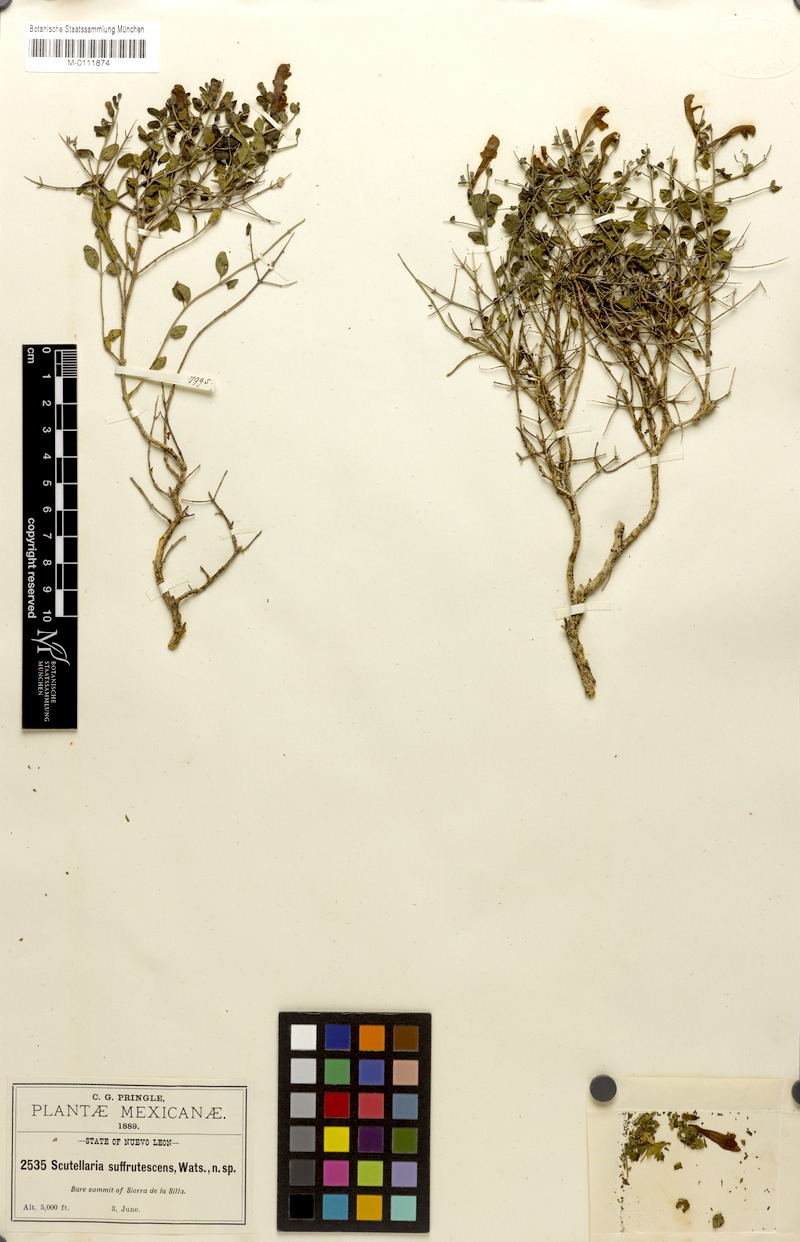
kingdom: Plantae
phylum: Tracheophyta
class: Magnoliopsida
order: Lamiales
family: Lamiaceae
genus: Scutellaria
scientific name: Scutellaria suffrutescens
